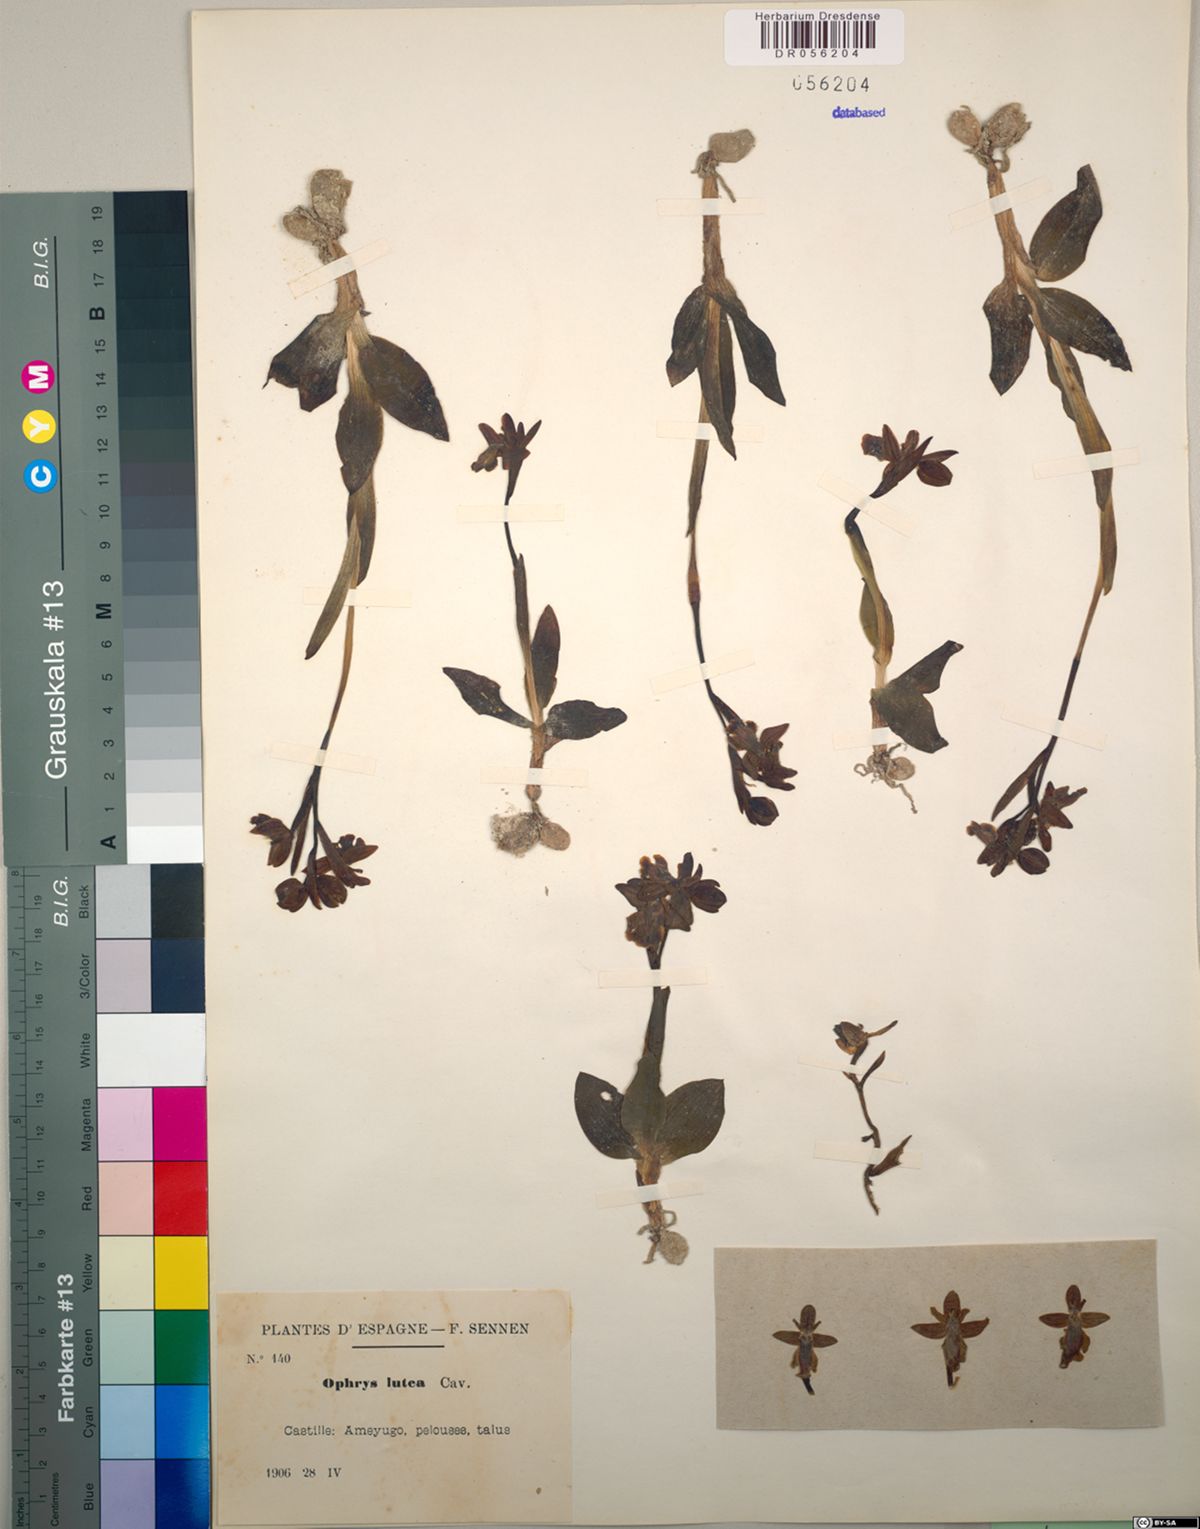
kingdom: Plantae
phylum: Tracheophyta
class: Liliopsida
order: Asparagales
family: Orchidaceae
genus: Ophrys
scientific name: Ophrys lutea
